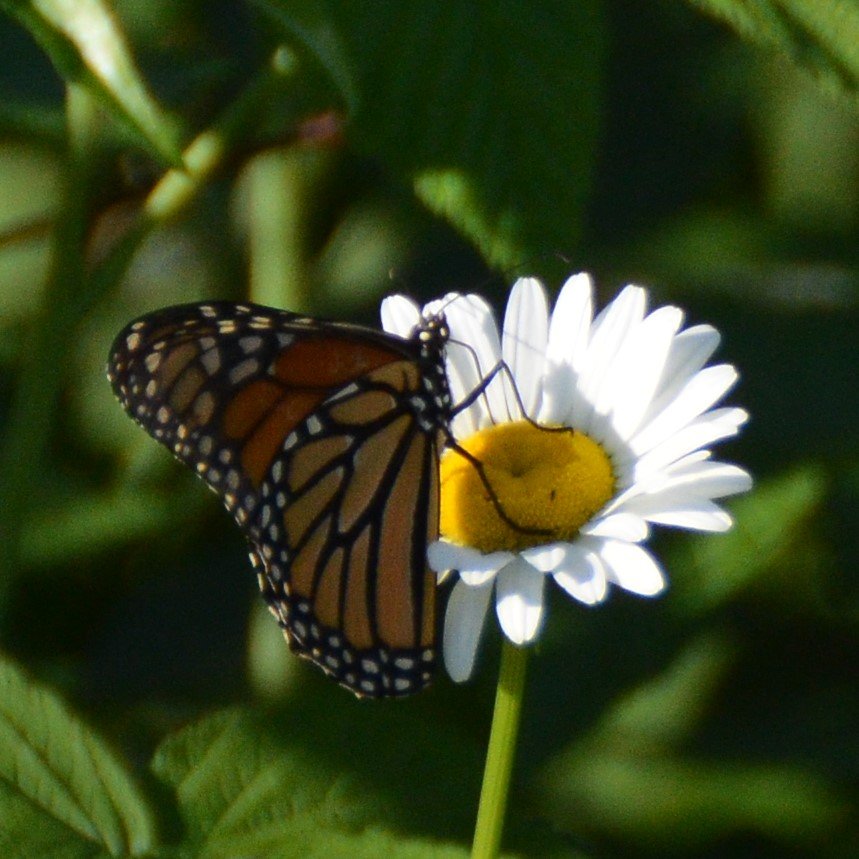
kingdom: Animalia
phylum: Arthropoda
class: Insecta
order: Lepidoptera
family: Nymphalidae
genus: Danaus
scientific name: Danaus plexippus
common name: Monarch
